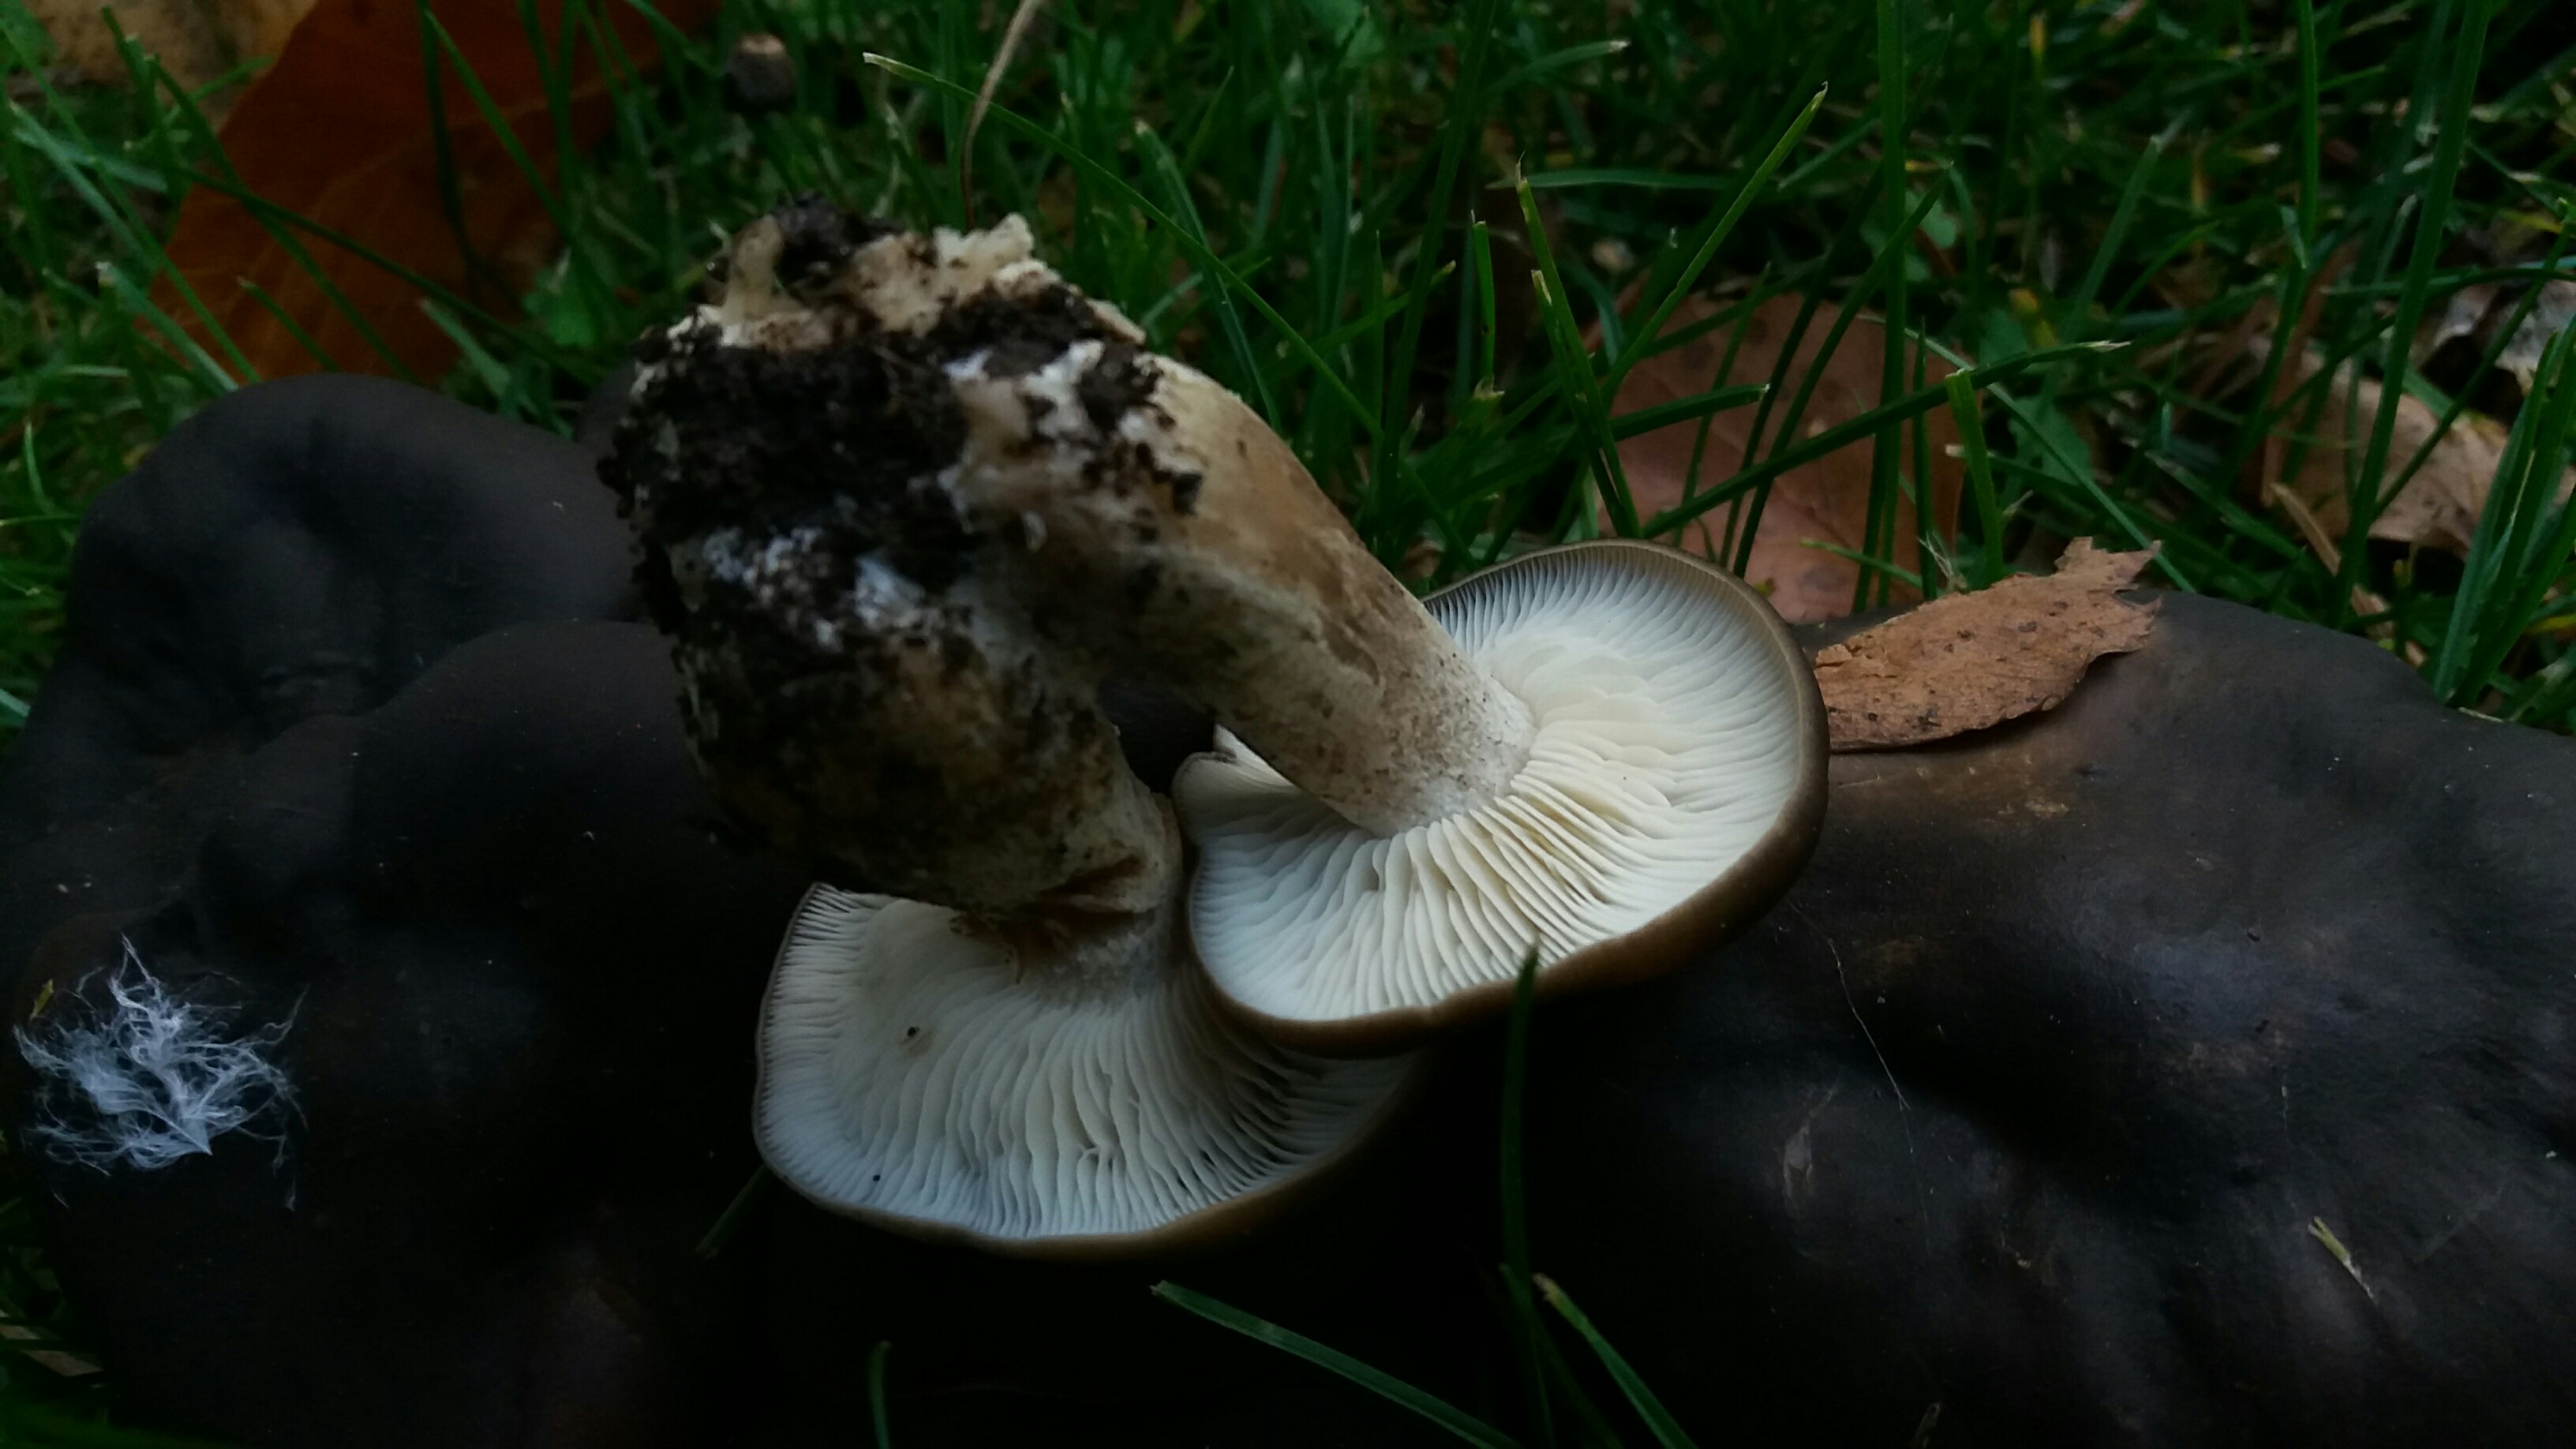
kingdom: Fungi
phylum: Basidiomycota
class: Agaricomycetes
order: Agaricales
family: Lyophyllaceae
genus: Lyophyllum
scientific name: Lyophyllum decastes
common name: Clustered domecap
